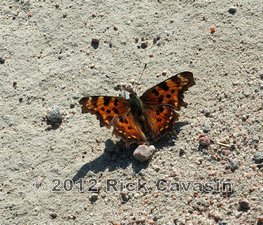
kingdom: Animalia
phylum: Arthropoda
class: Insecta
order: Lepidoptera
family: Nymphalidae
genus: Polygonia
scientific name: Polygonia faunus
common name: Green Comma
